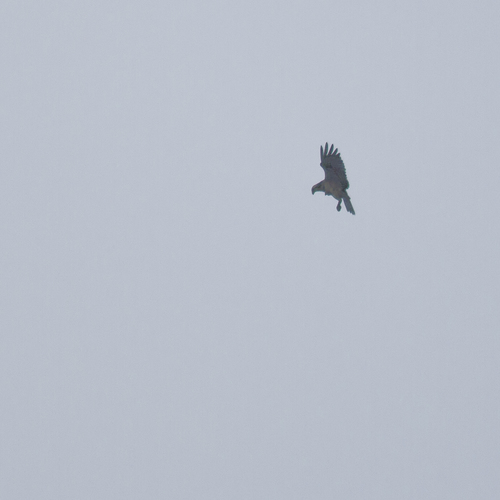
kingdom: Animalia
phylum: Chordata
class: Aves
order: Accipitriformes
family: Pandionidae
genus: Pandion
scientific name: Pandion haliaetus
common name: Osprey
